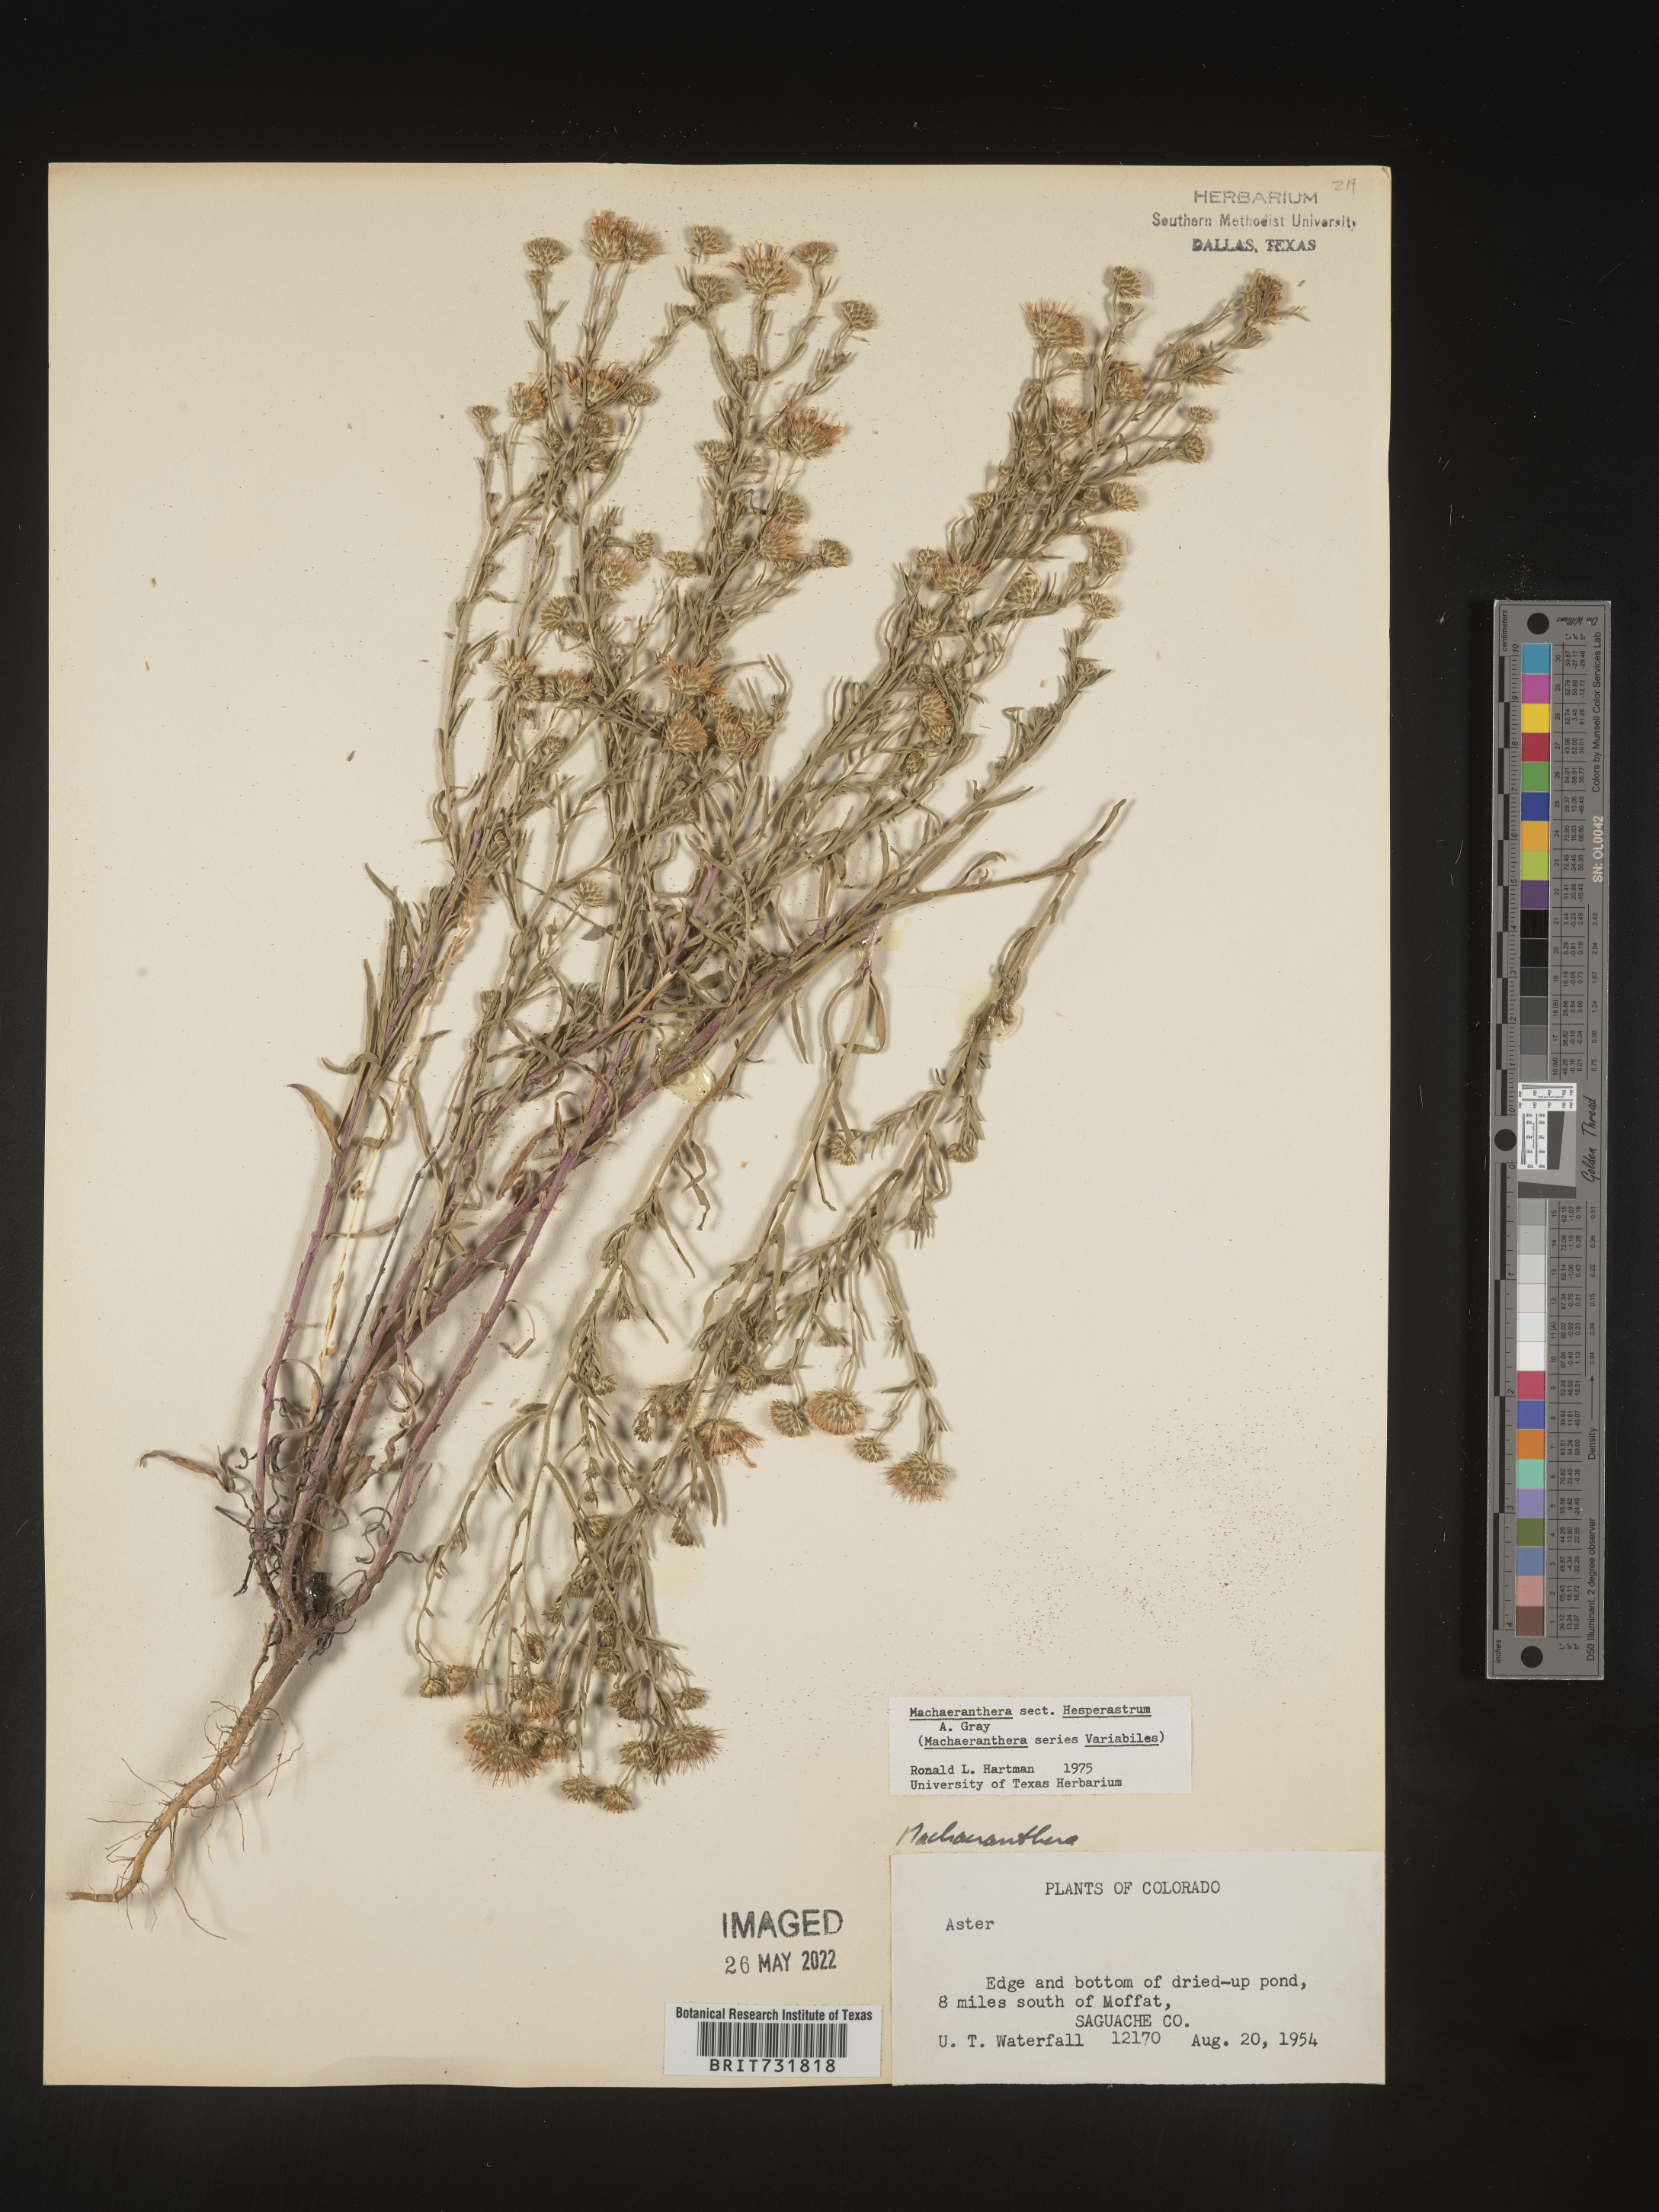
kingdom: Plantae
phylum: Tracheophyta
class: Magnoliopsida
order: Asterales
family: Asteraceae
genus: Machaeranthera
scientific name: Machaeranthera
